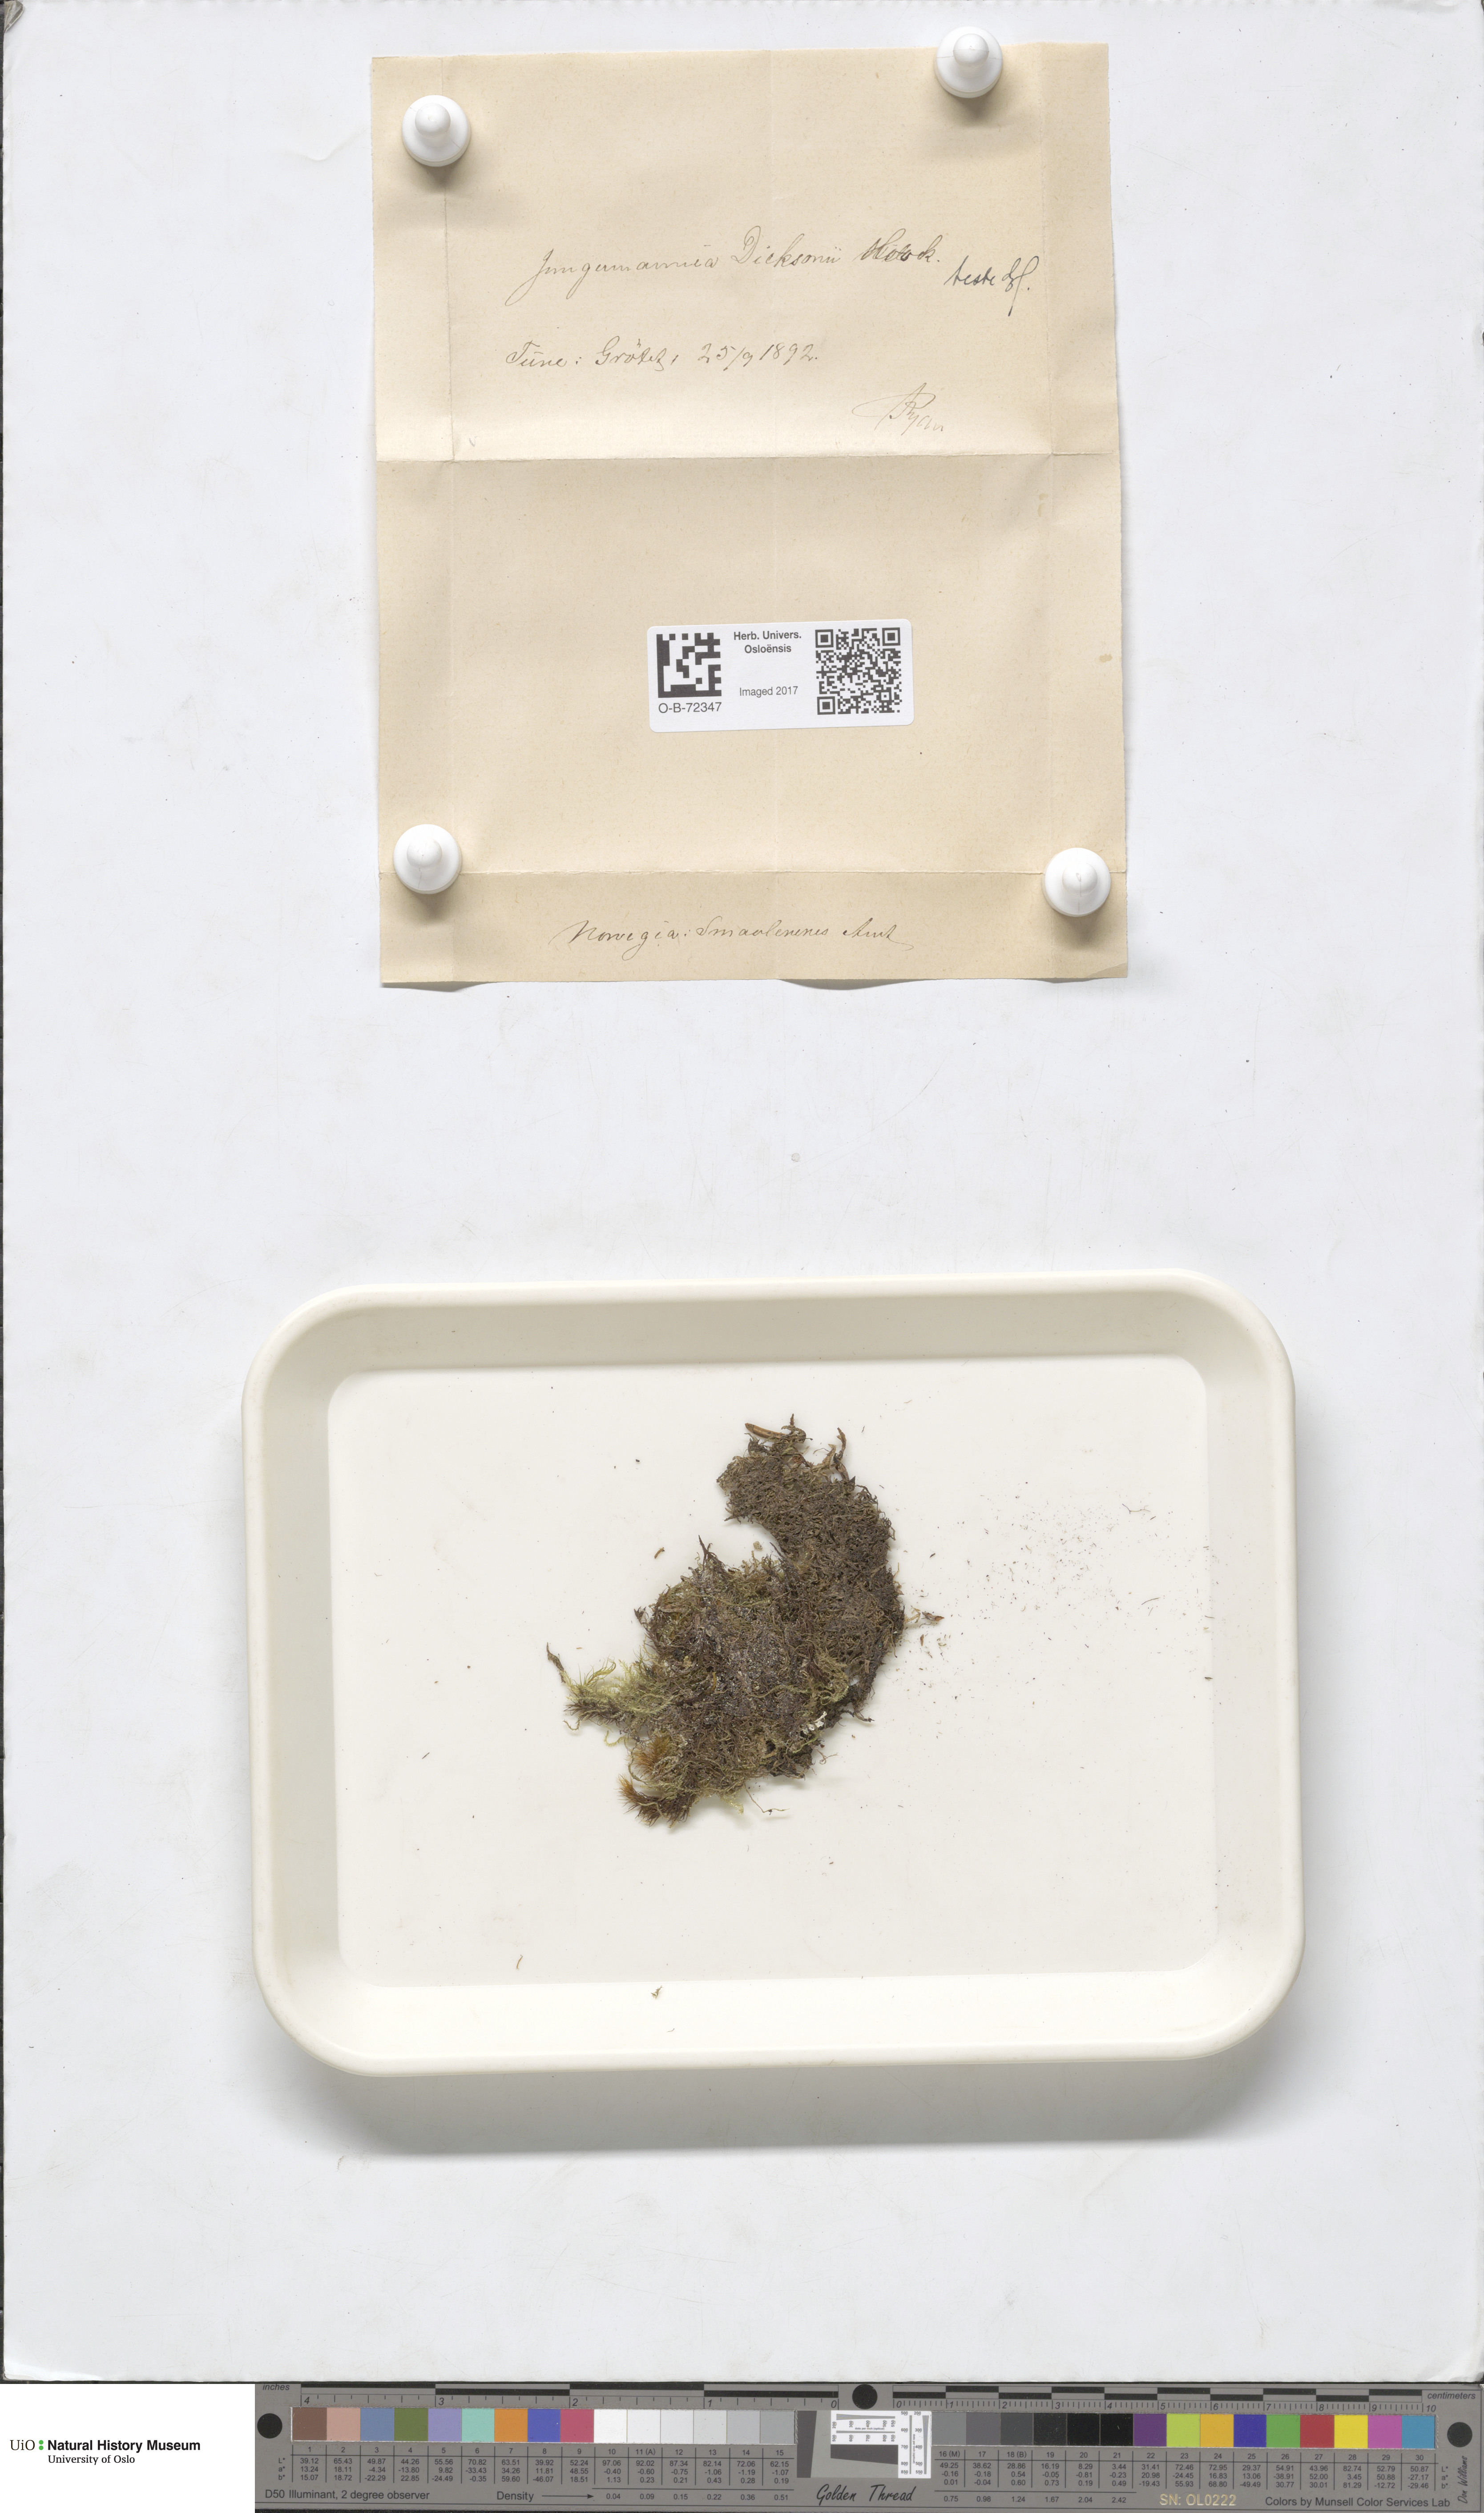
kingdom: Plantae
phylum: Marchantiophyta
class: Jungermanniopsida
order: Jungermanniales
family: Scapaniaceae
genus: Douinia
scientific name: Douinia ovata
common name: Waxy earwort
